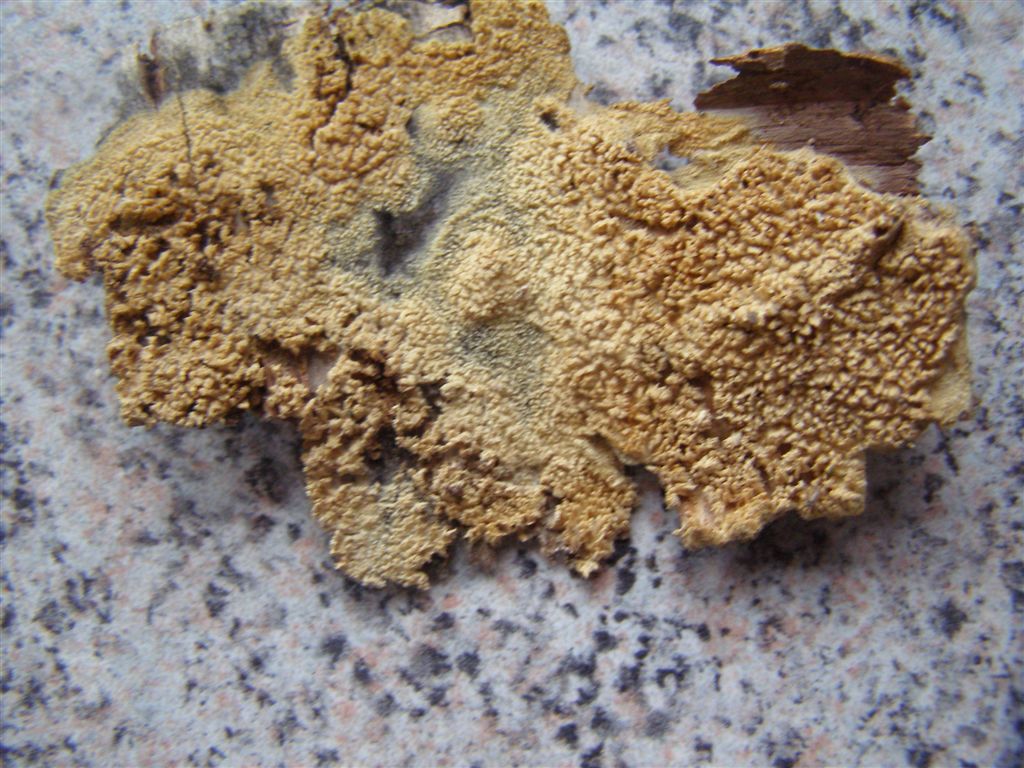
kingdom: Fungi
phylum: Basidiomycota
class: Agaricomycetes
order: Hymenochaetales
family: Hyphodontiaceae
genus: Hyphodontia
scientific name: Hyphodontia barba-jovis
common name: skægget tandsvamp
